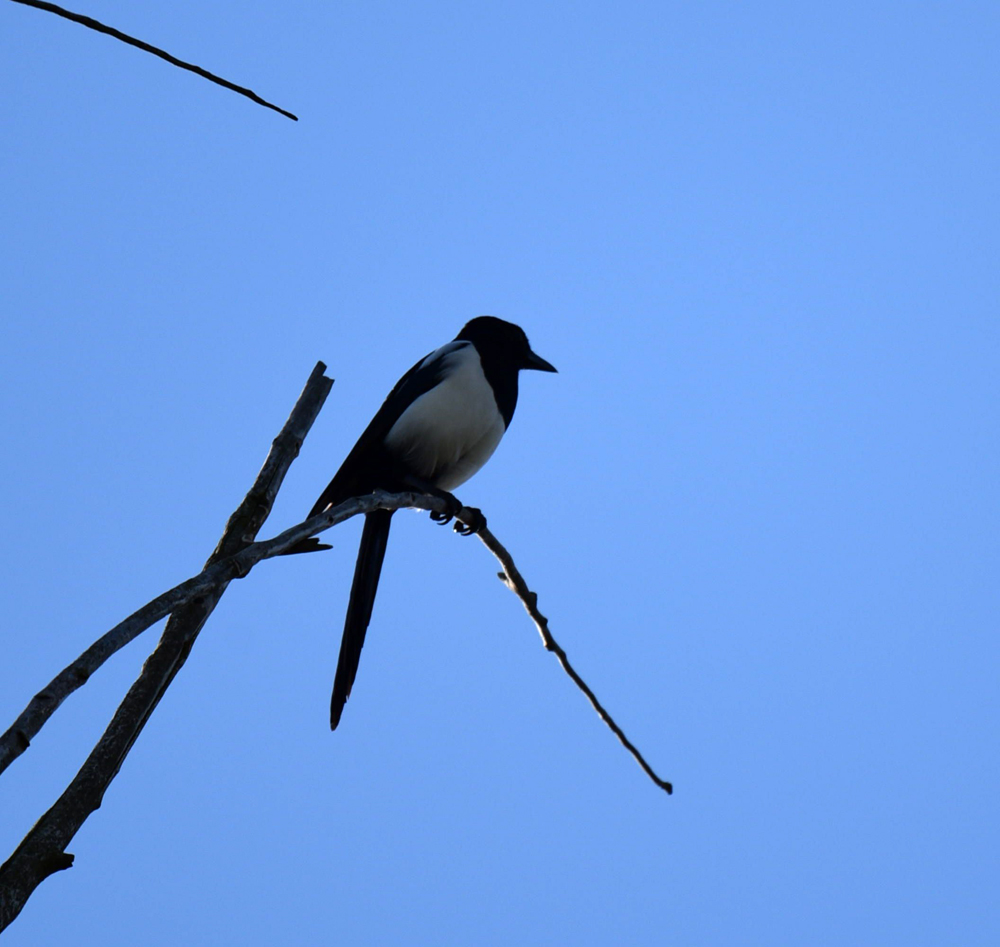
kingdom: Animalia
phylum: Chordata
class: Aves
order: Passeriformes
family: Corvidae
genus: Pica
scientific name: Pica pica
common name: Eurasian magpie
